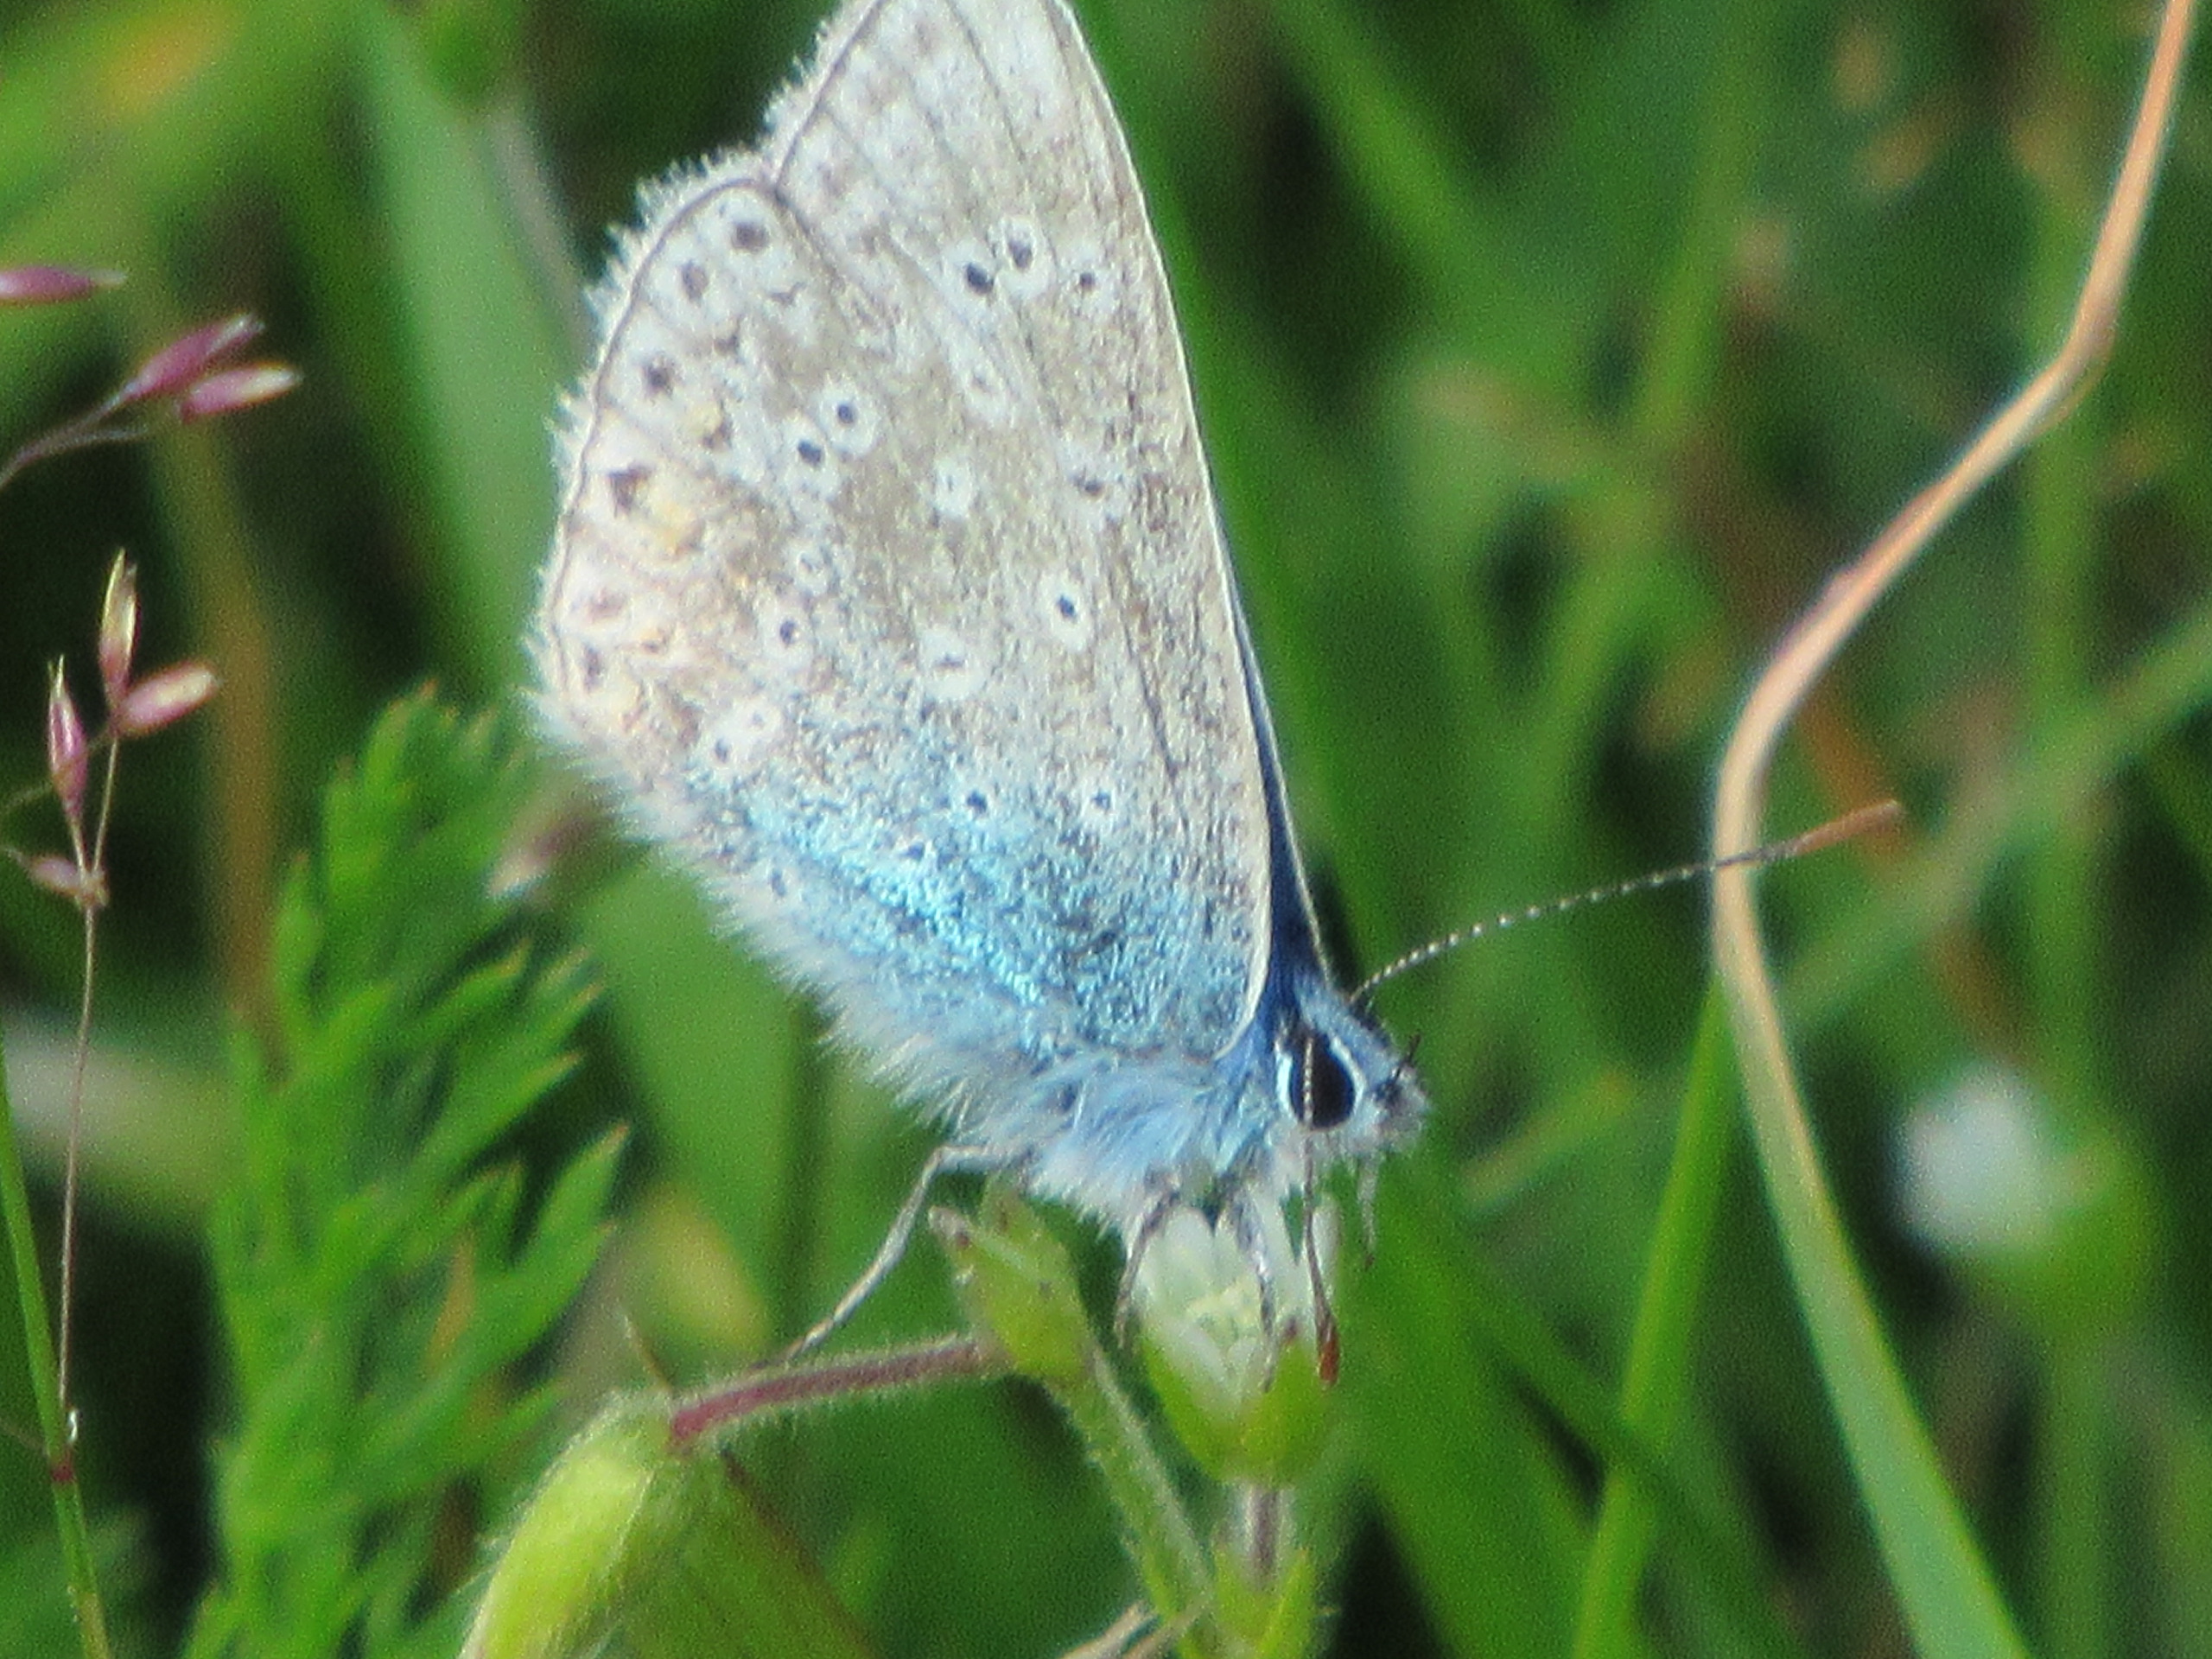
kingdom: Animalia
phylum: Arthropoda
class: Insecta
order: Lepidoptera
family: Lycaenidae
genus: Polyommatus
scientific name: Polyommatus icarus
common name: Almindelig blåfugl
